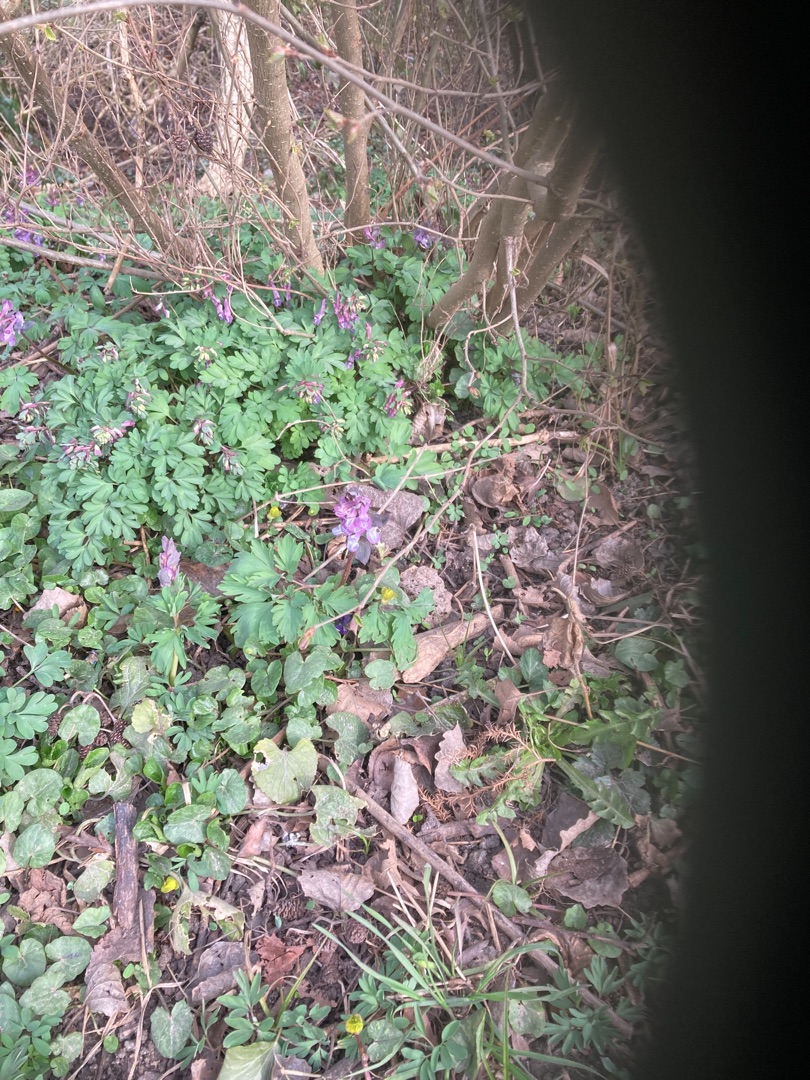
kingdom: Plantae
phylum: Tracheophyta
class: Magnoliopsida
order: Ranunculales
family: Papaveraceae
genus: Corydalis
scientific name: Corydalis solida
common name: Langstilket lærkespore
